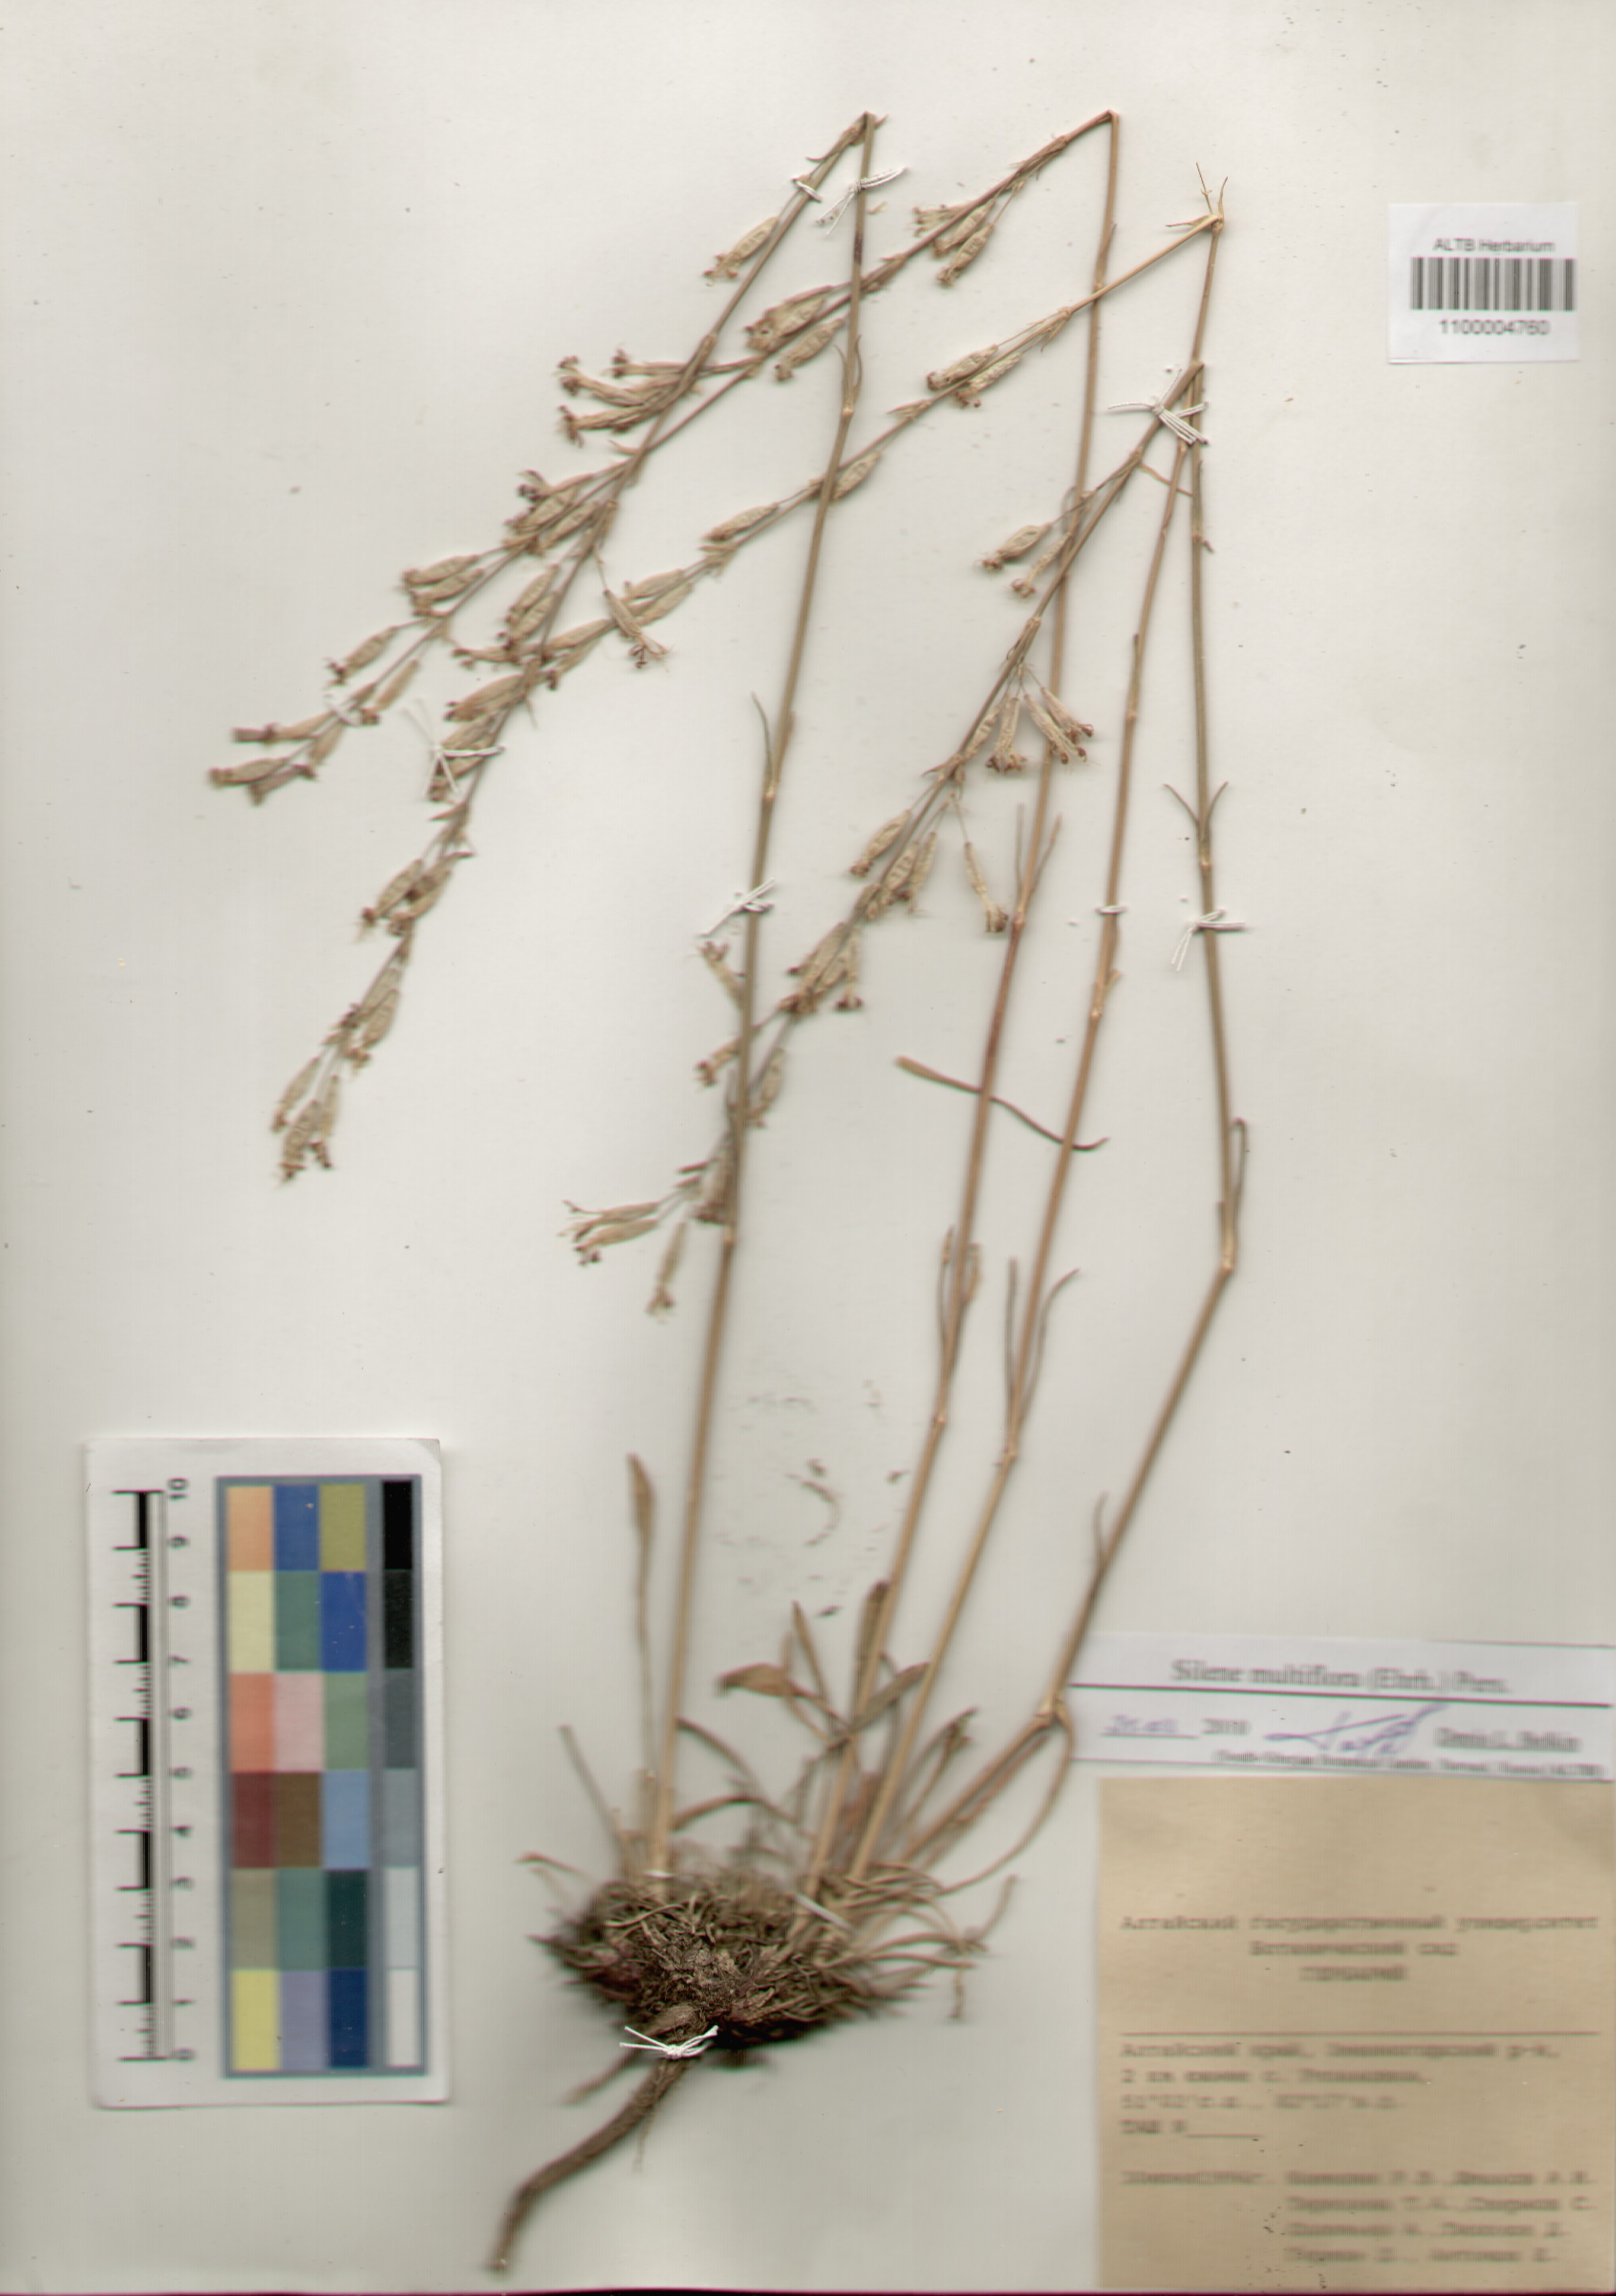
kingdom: Plantae
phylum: Tracheophyta
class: Magnoliopsida
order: Caryophyllales
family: Caryophyllaceae
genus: Silene
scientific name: Silene multiflora
